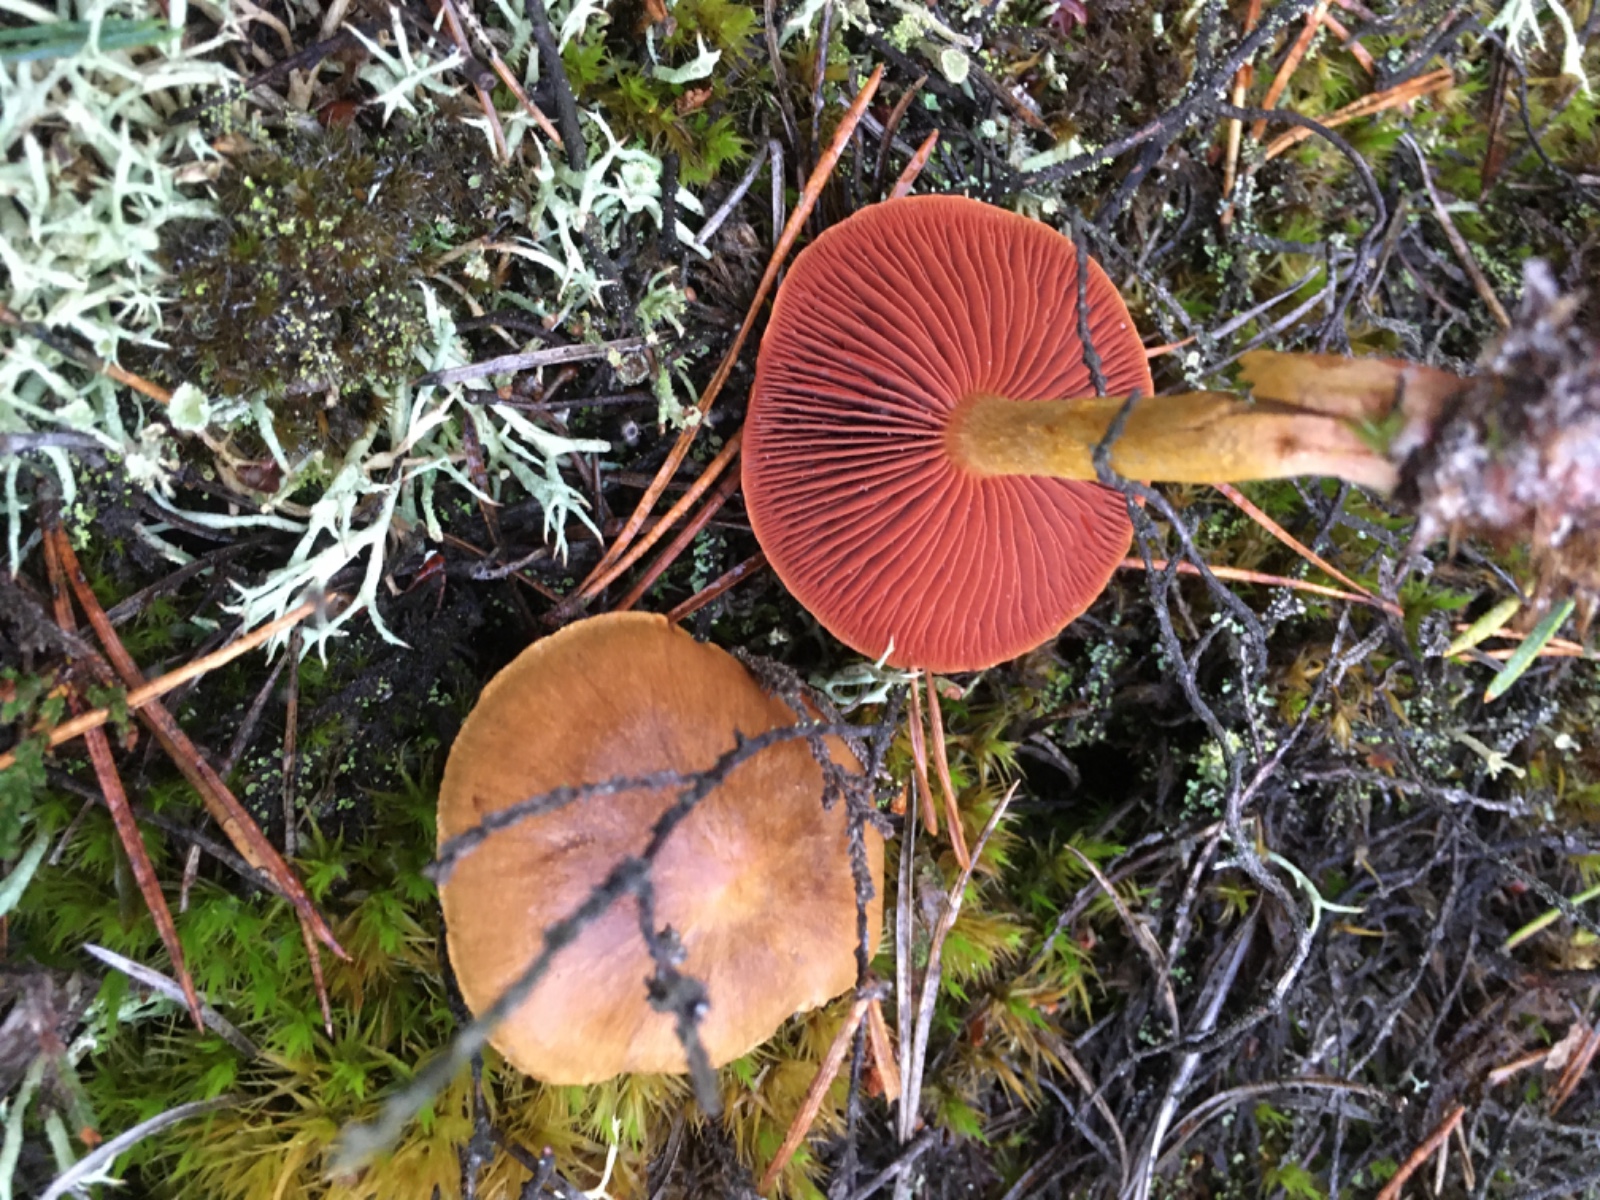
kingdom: Fungi
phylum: Basidiomycota
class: Agaricomycetes
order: Agaricales
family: Cortinariaceae
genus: Cortinarius
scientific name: Cortinarius
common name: cinnoberbladet slørhat
